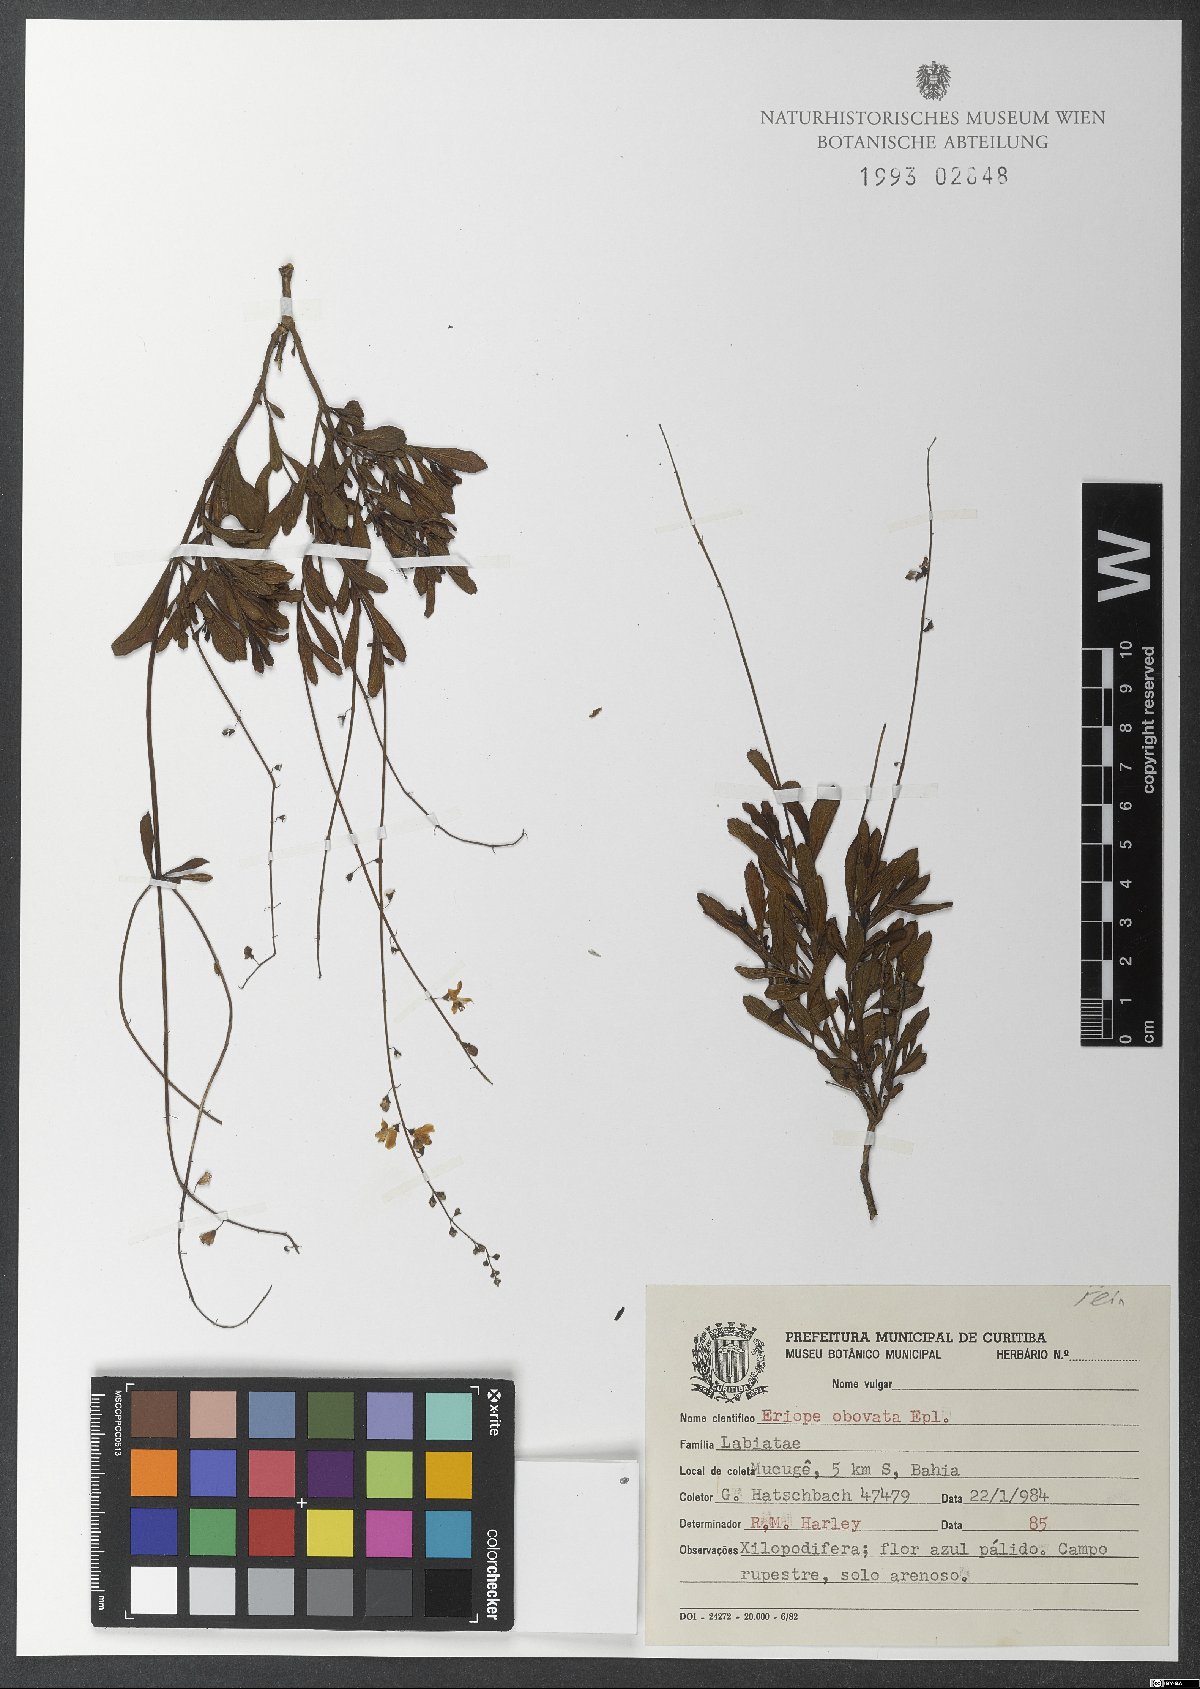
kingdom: Plantae
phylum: Tracheophyta
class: Magnoliopsida
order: Lamiales
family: Lamiaceae
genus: Eriope
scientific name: Eriope obovata
